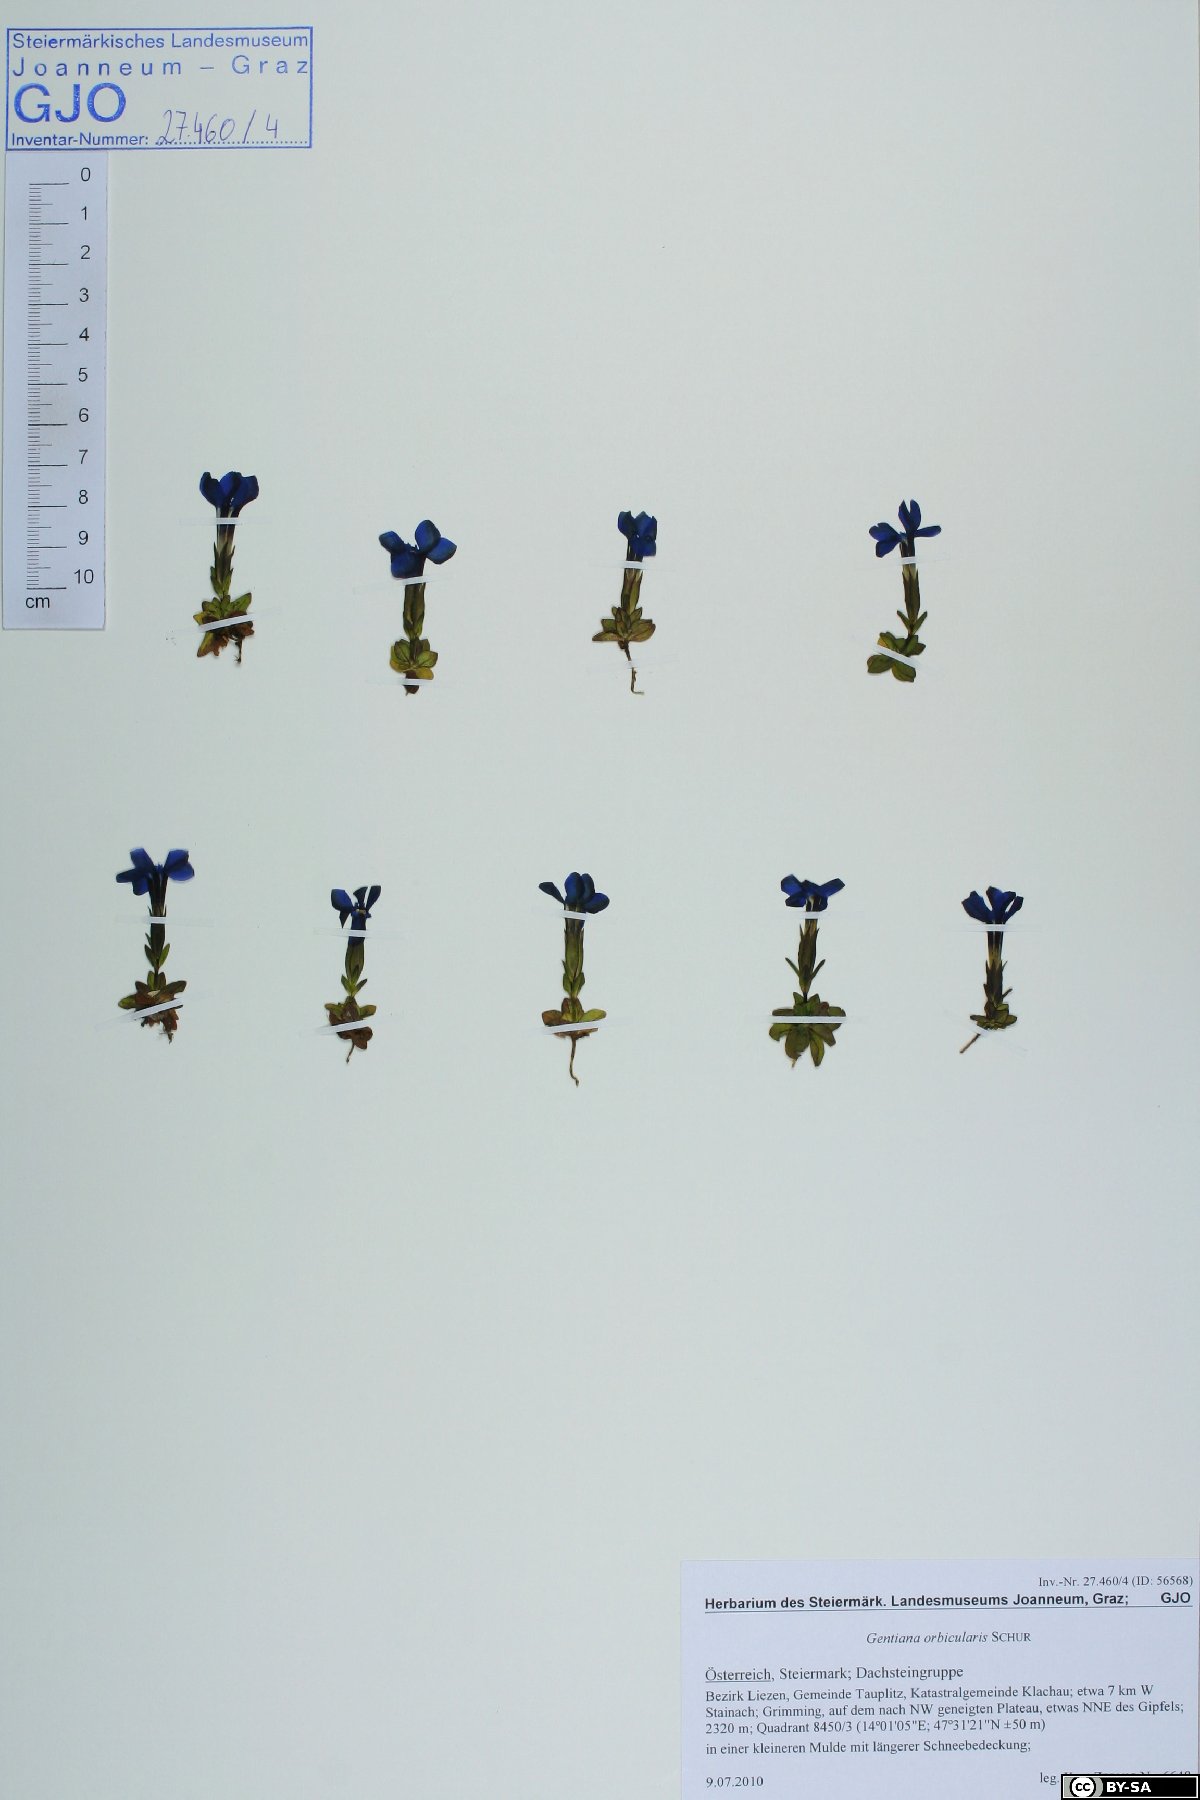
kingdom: Plantae
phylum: Tracheophyta
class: Magnoliopsida
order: Gentianales
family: Gentianaceae
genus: Gentiana
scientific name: Gentiana orbicularis
